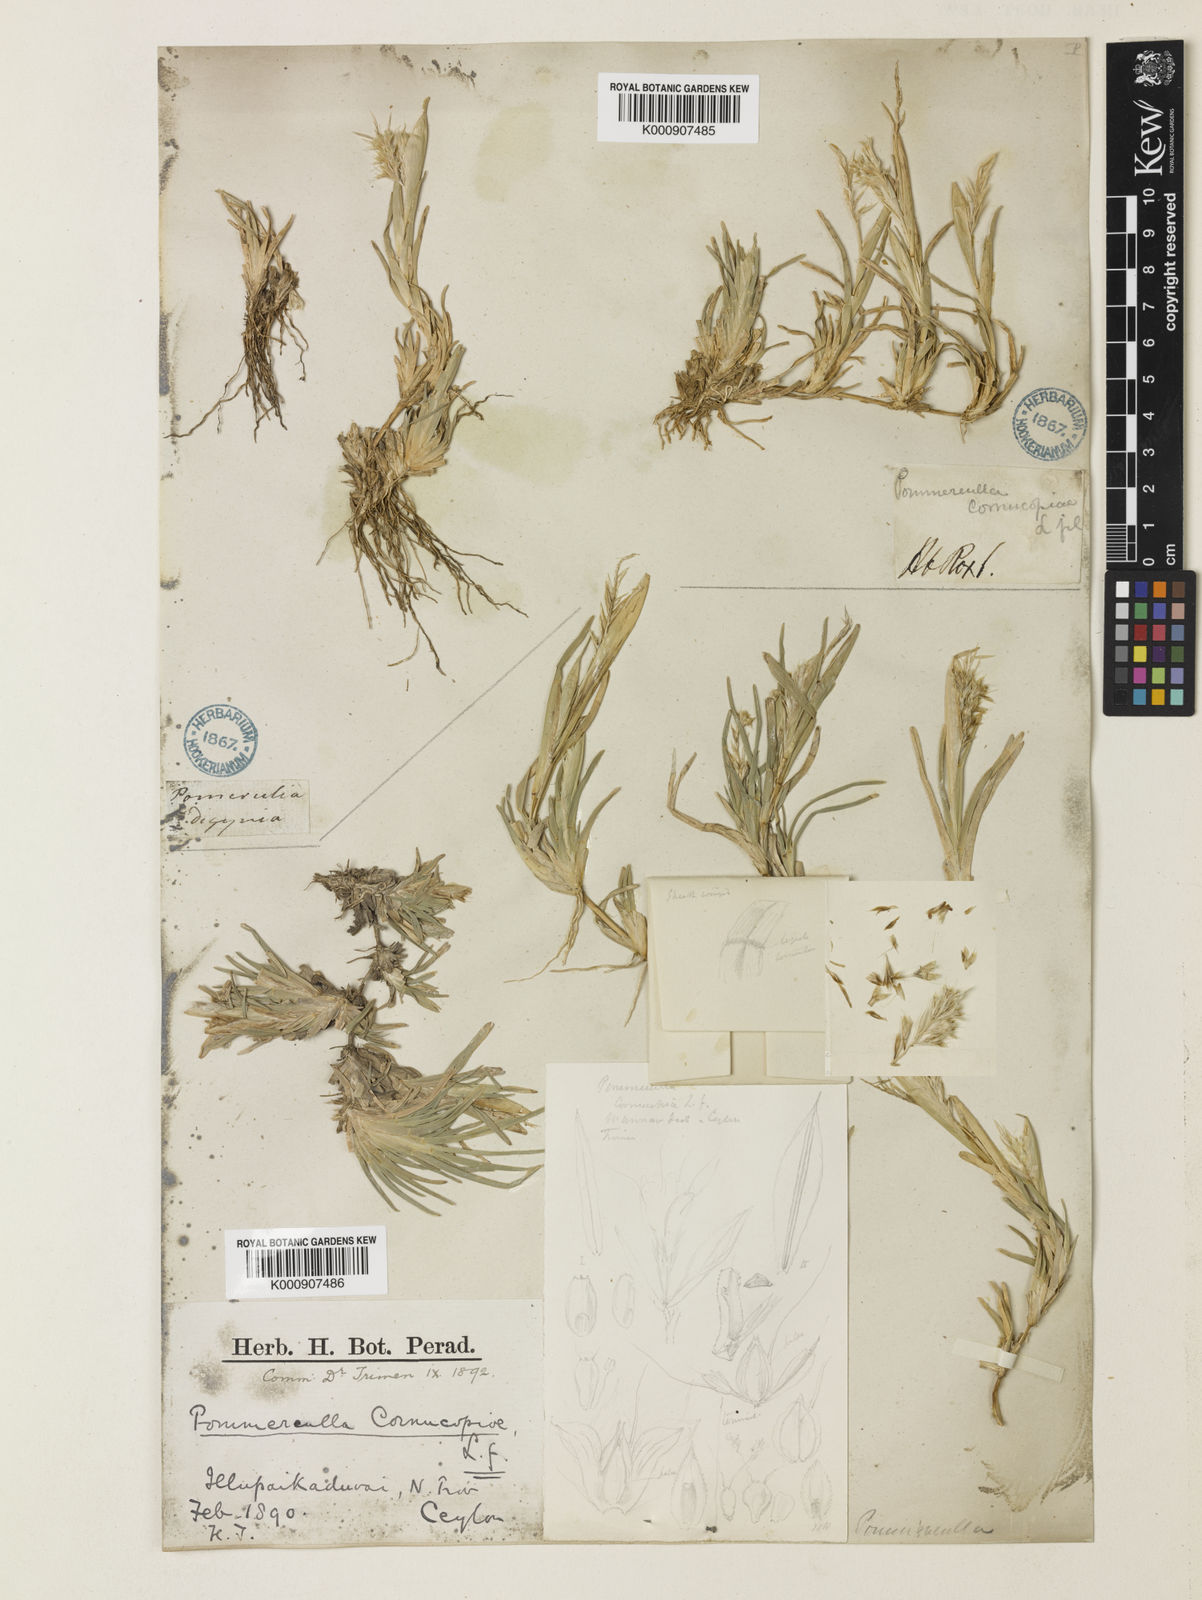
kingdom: Plantae
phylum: Tracheophyta
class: Liliopsida
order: Poales
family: Poaceae
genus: Pommereulla
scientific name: Pommereulla cornucopiae
